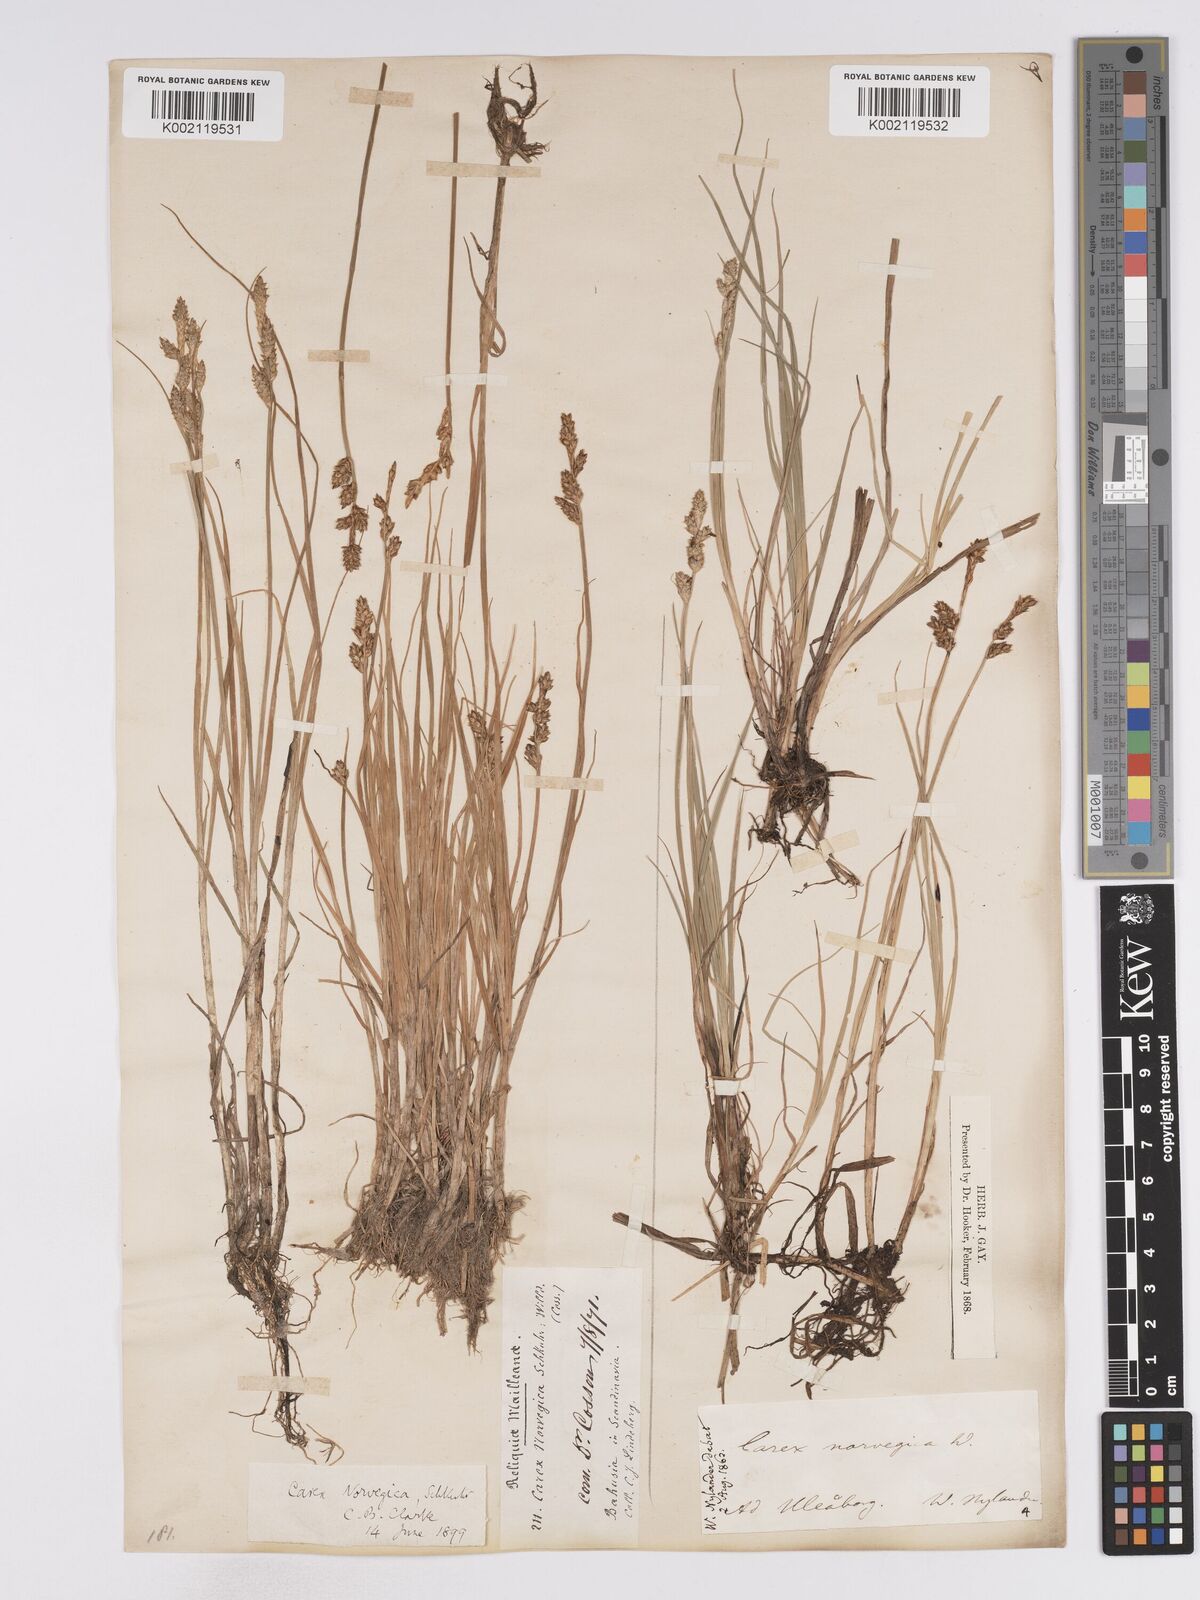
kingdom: Plantae
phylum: Tracheophyta
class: Liliopsida
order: Poales
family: Cyperaceae
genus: Carex
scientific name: Carex mackenziei
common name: Mackenzie's sedge
